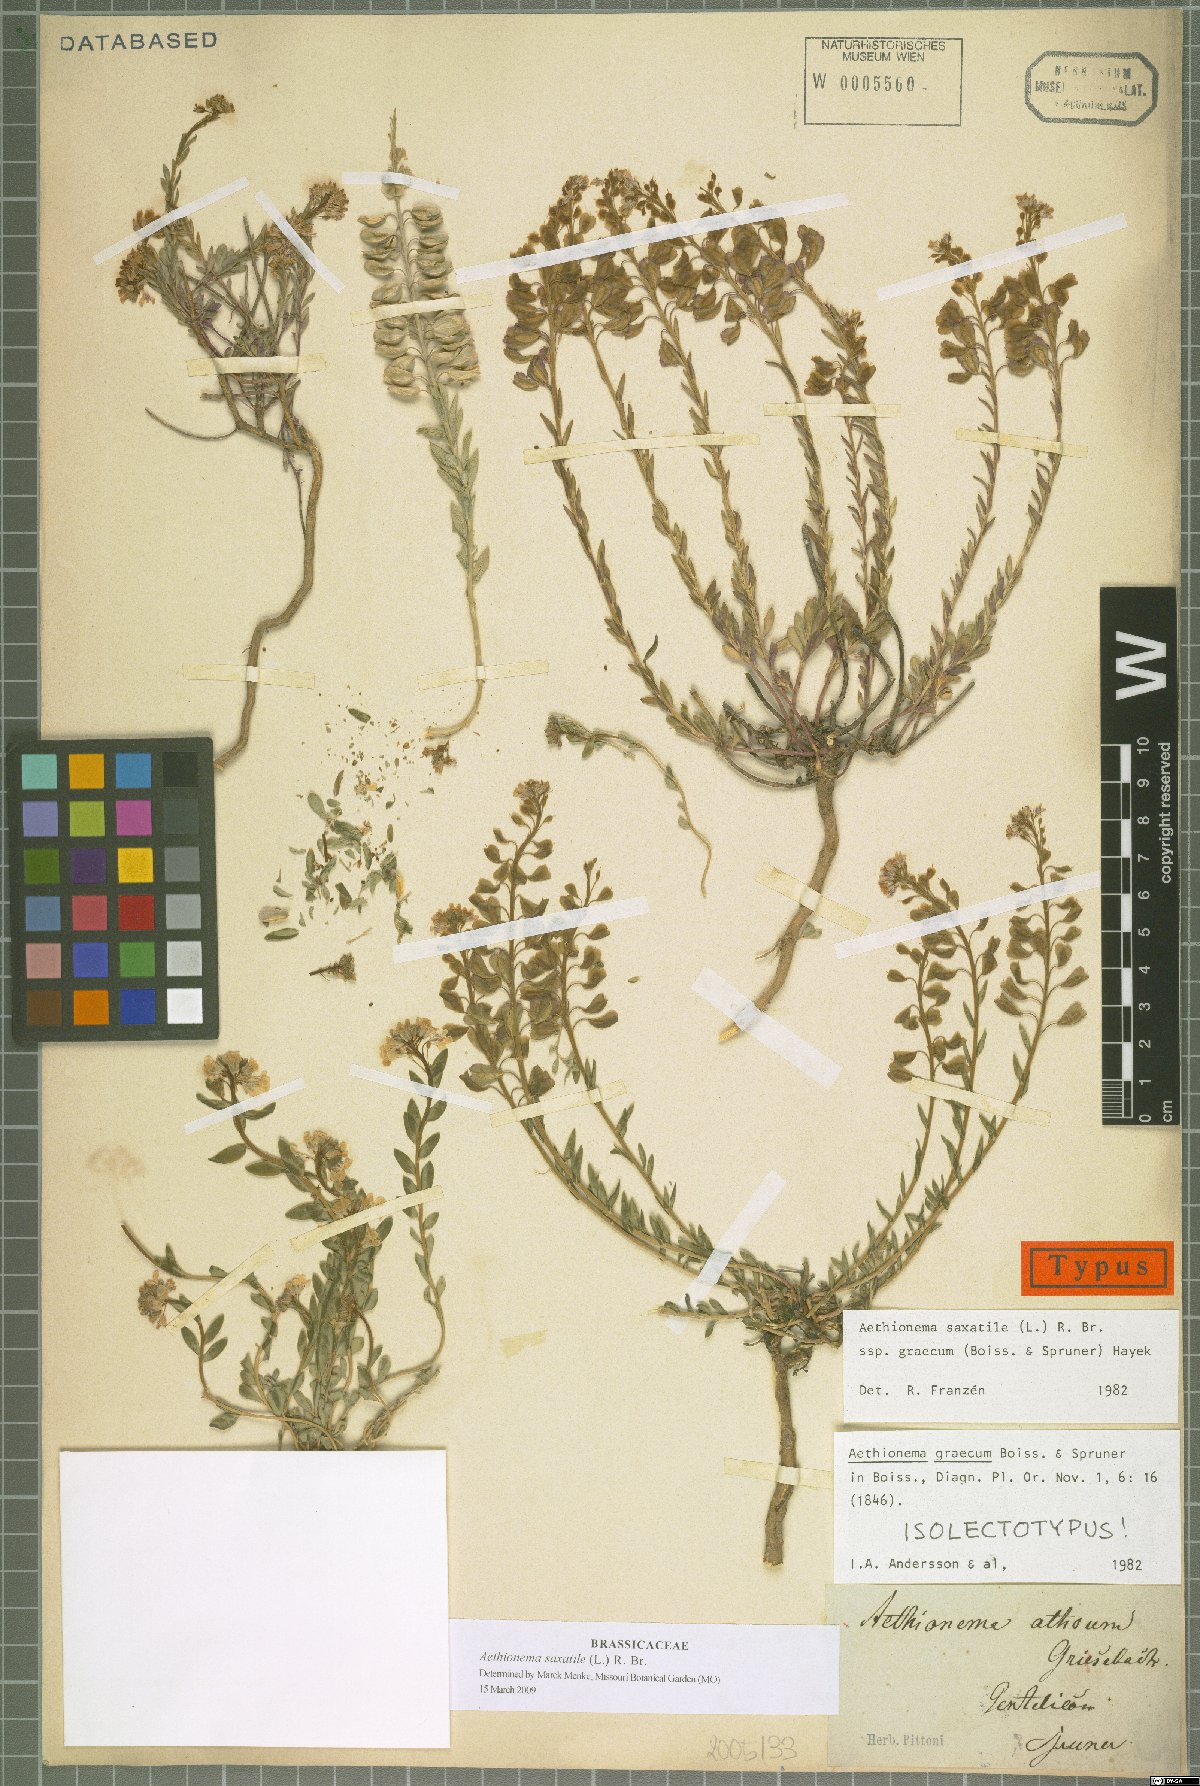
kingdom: Plantae
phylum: Tracheophyta
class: Magnoliopsida
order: Brassicales
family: Brassicaceae
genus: Aethionema
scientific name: Aethionema saxatile
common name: Burnt candytuft
